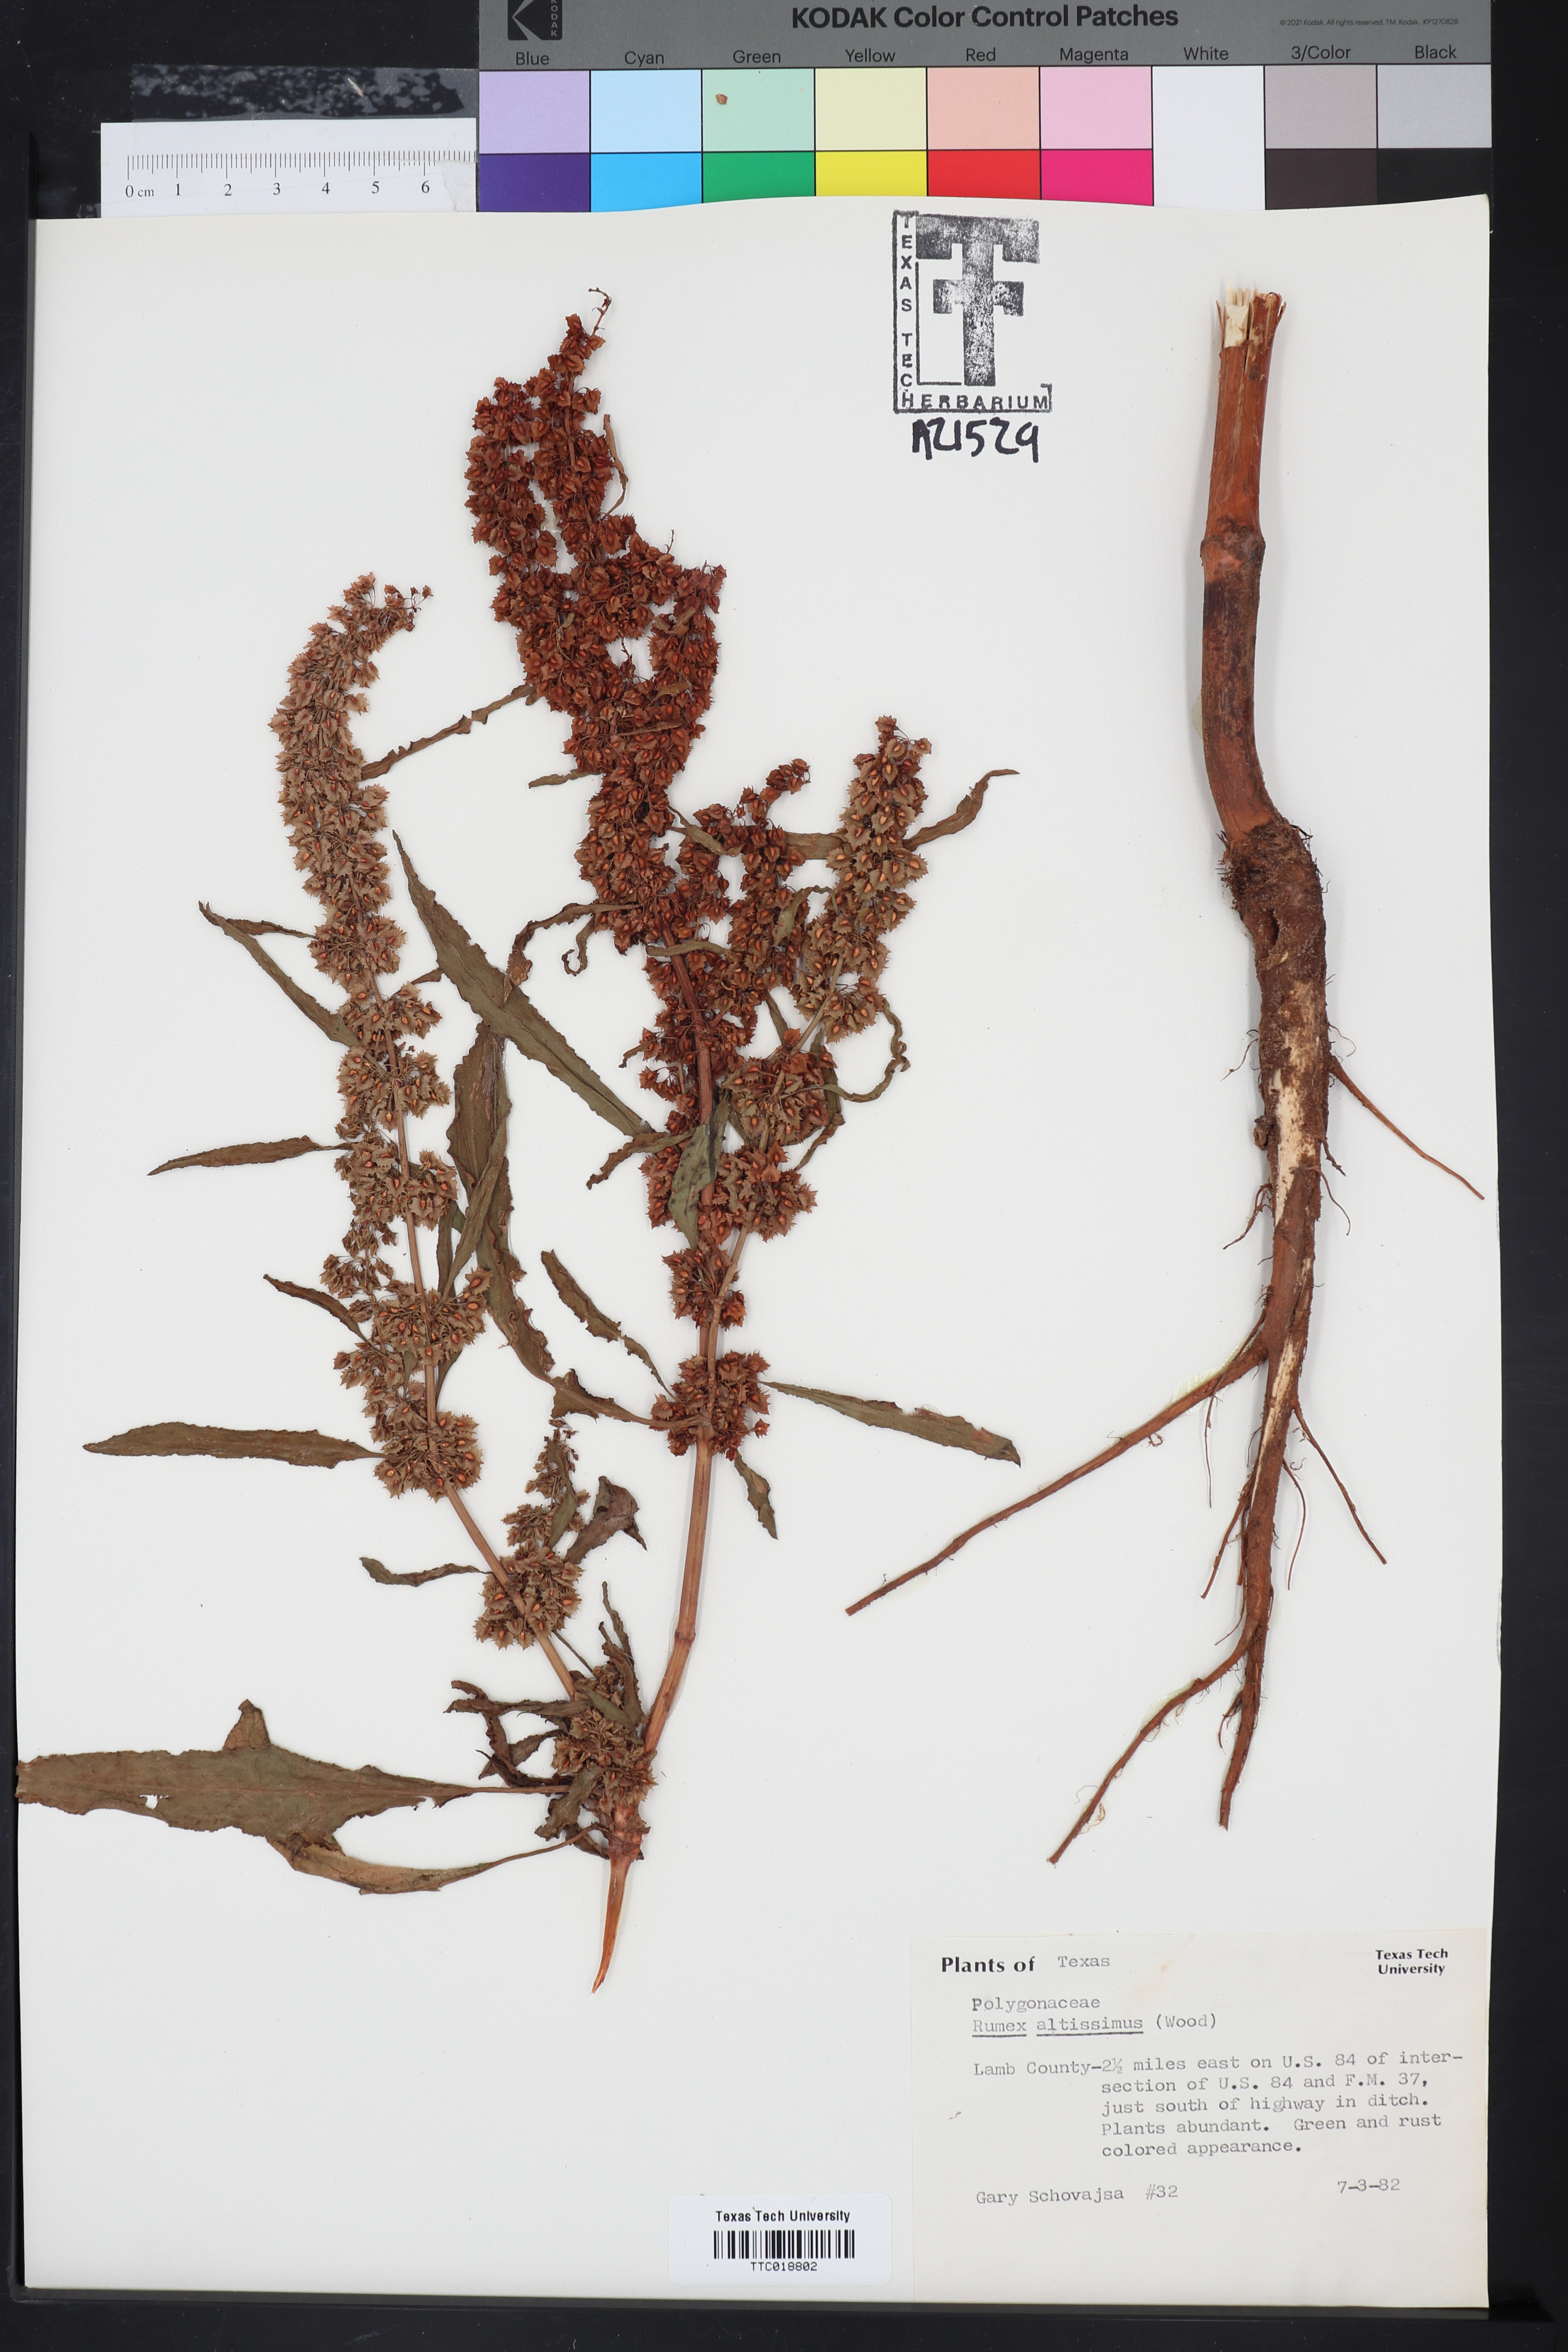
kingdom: Plantae
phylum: Tracheophyta
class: Magnoliopsida
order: Caryophyllales
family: Polygonaceae
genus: Rumex
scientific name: Rumex altissimus
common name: Smooth dock
